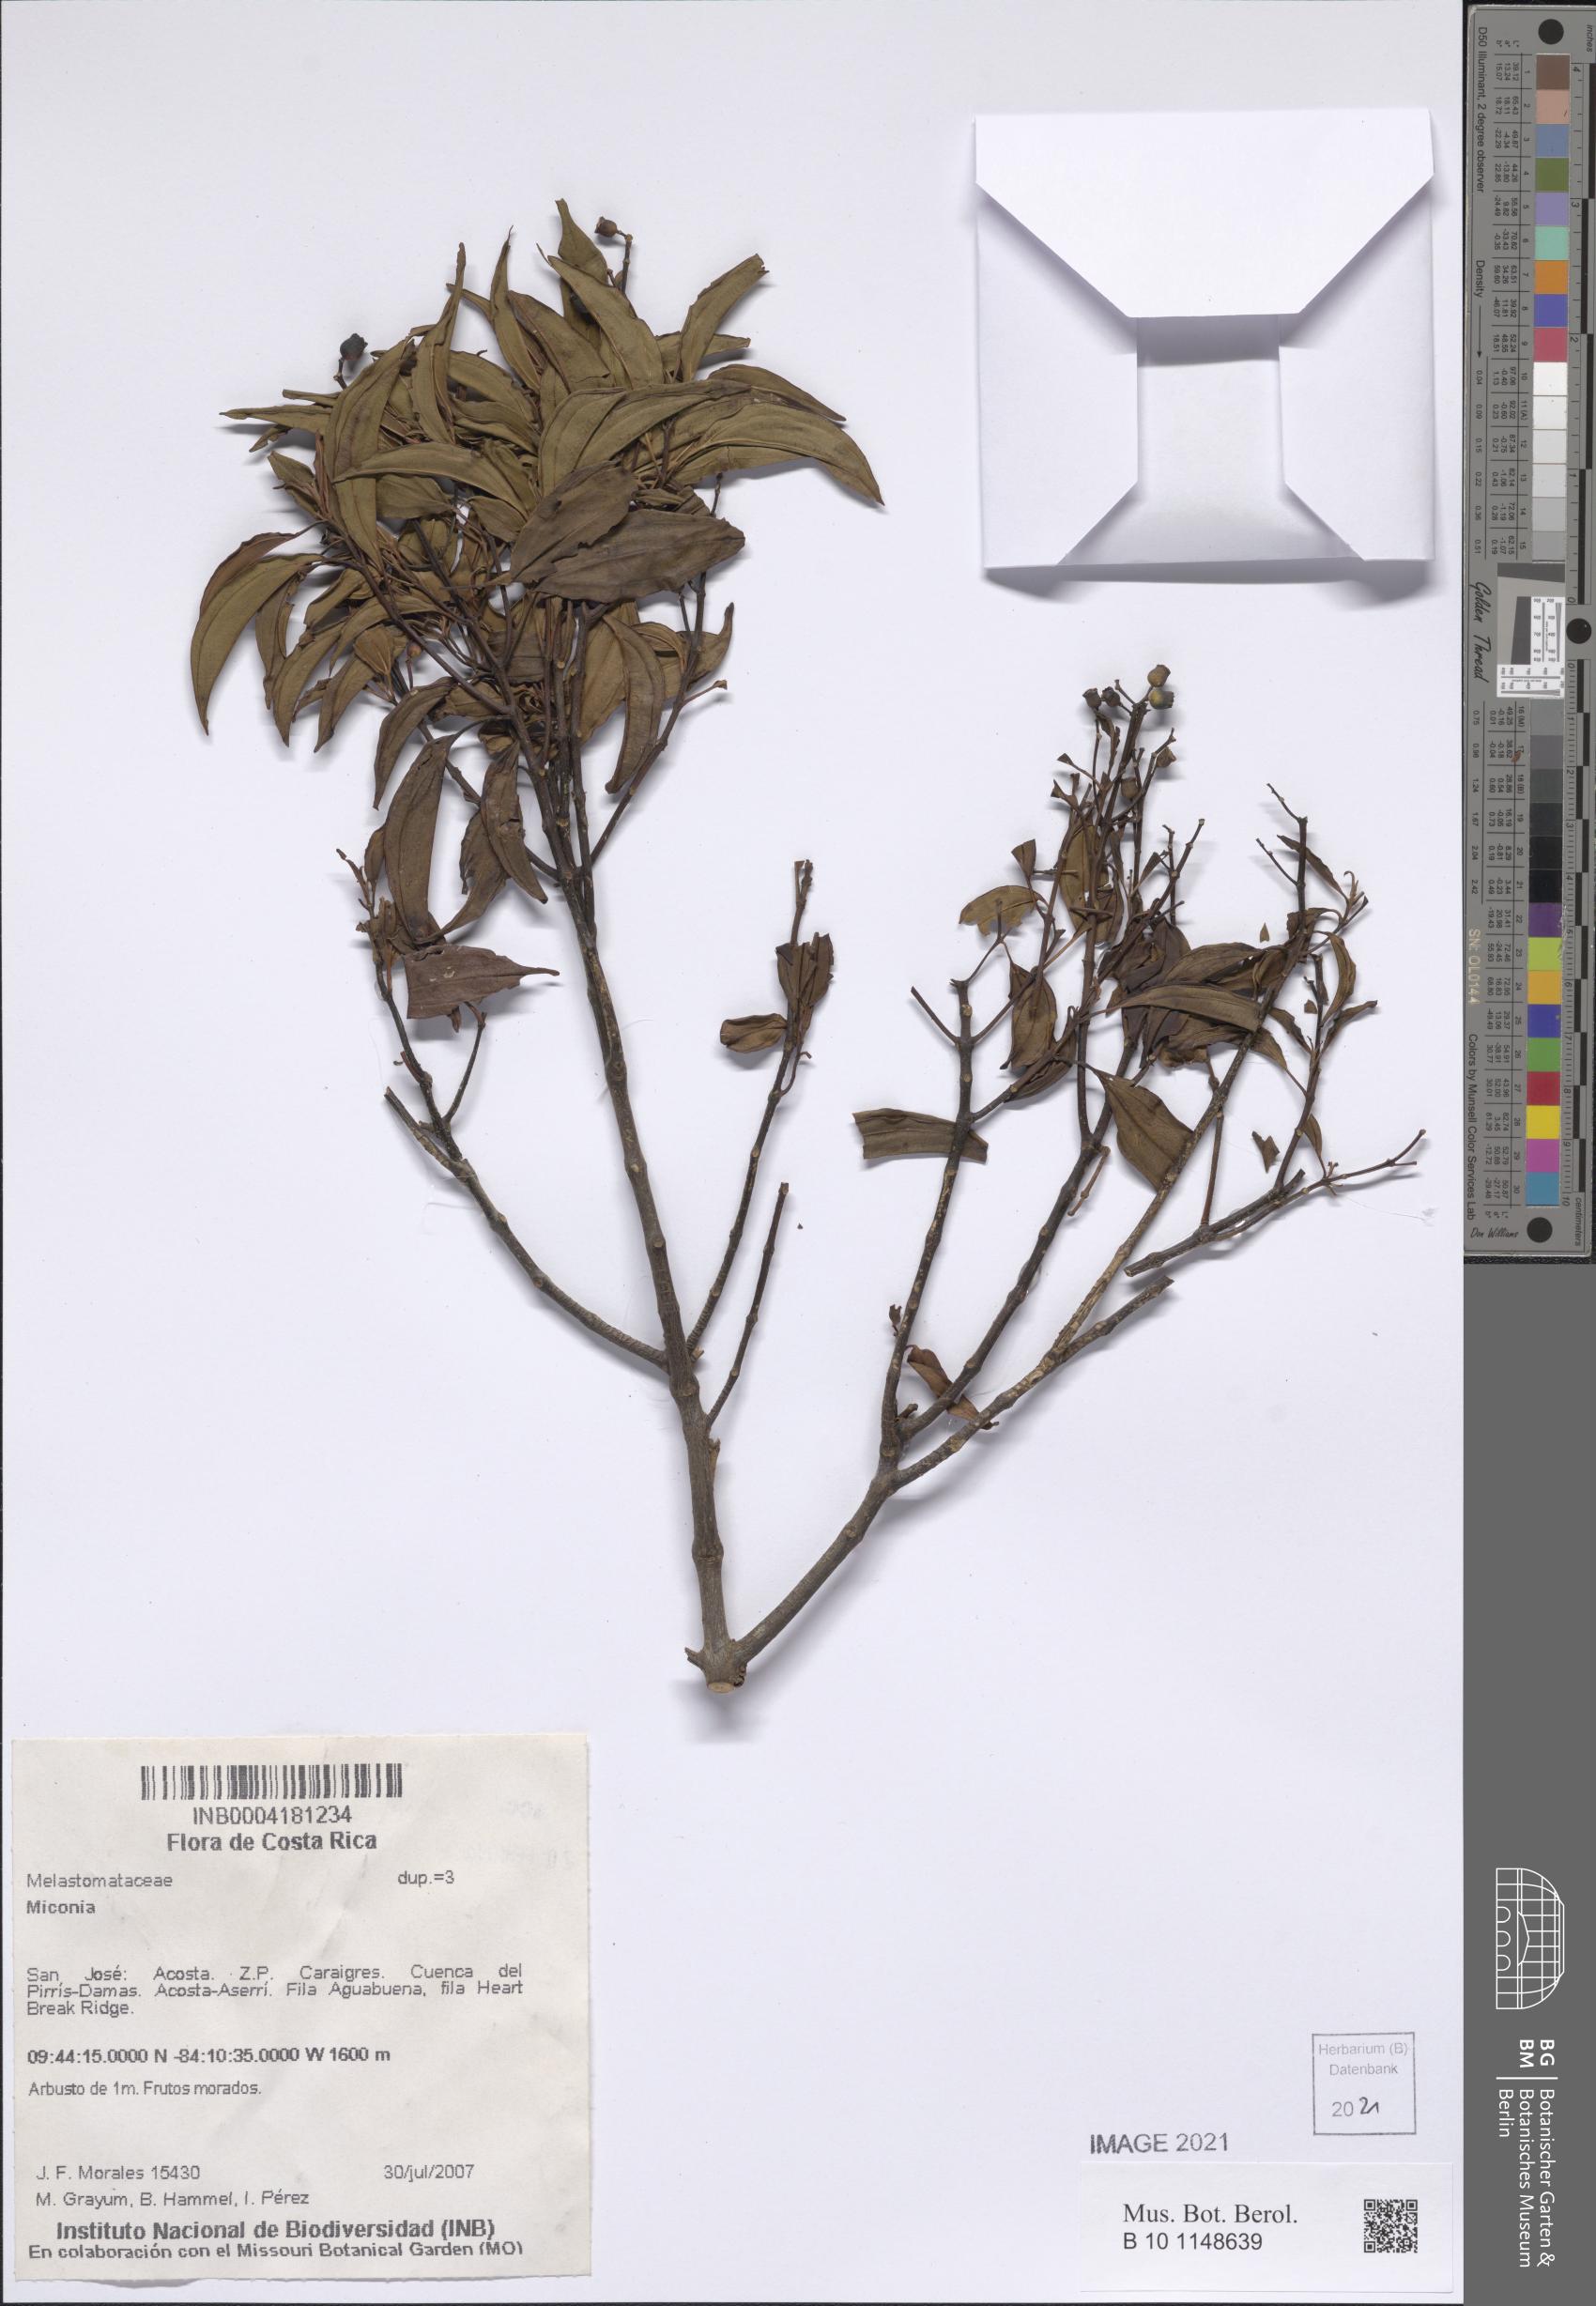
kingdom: Plantae
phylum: Tracheophyta
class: Magnoliopsida
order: Myrtales
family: Melastomataceae
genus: Miconia
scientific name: Miconia
